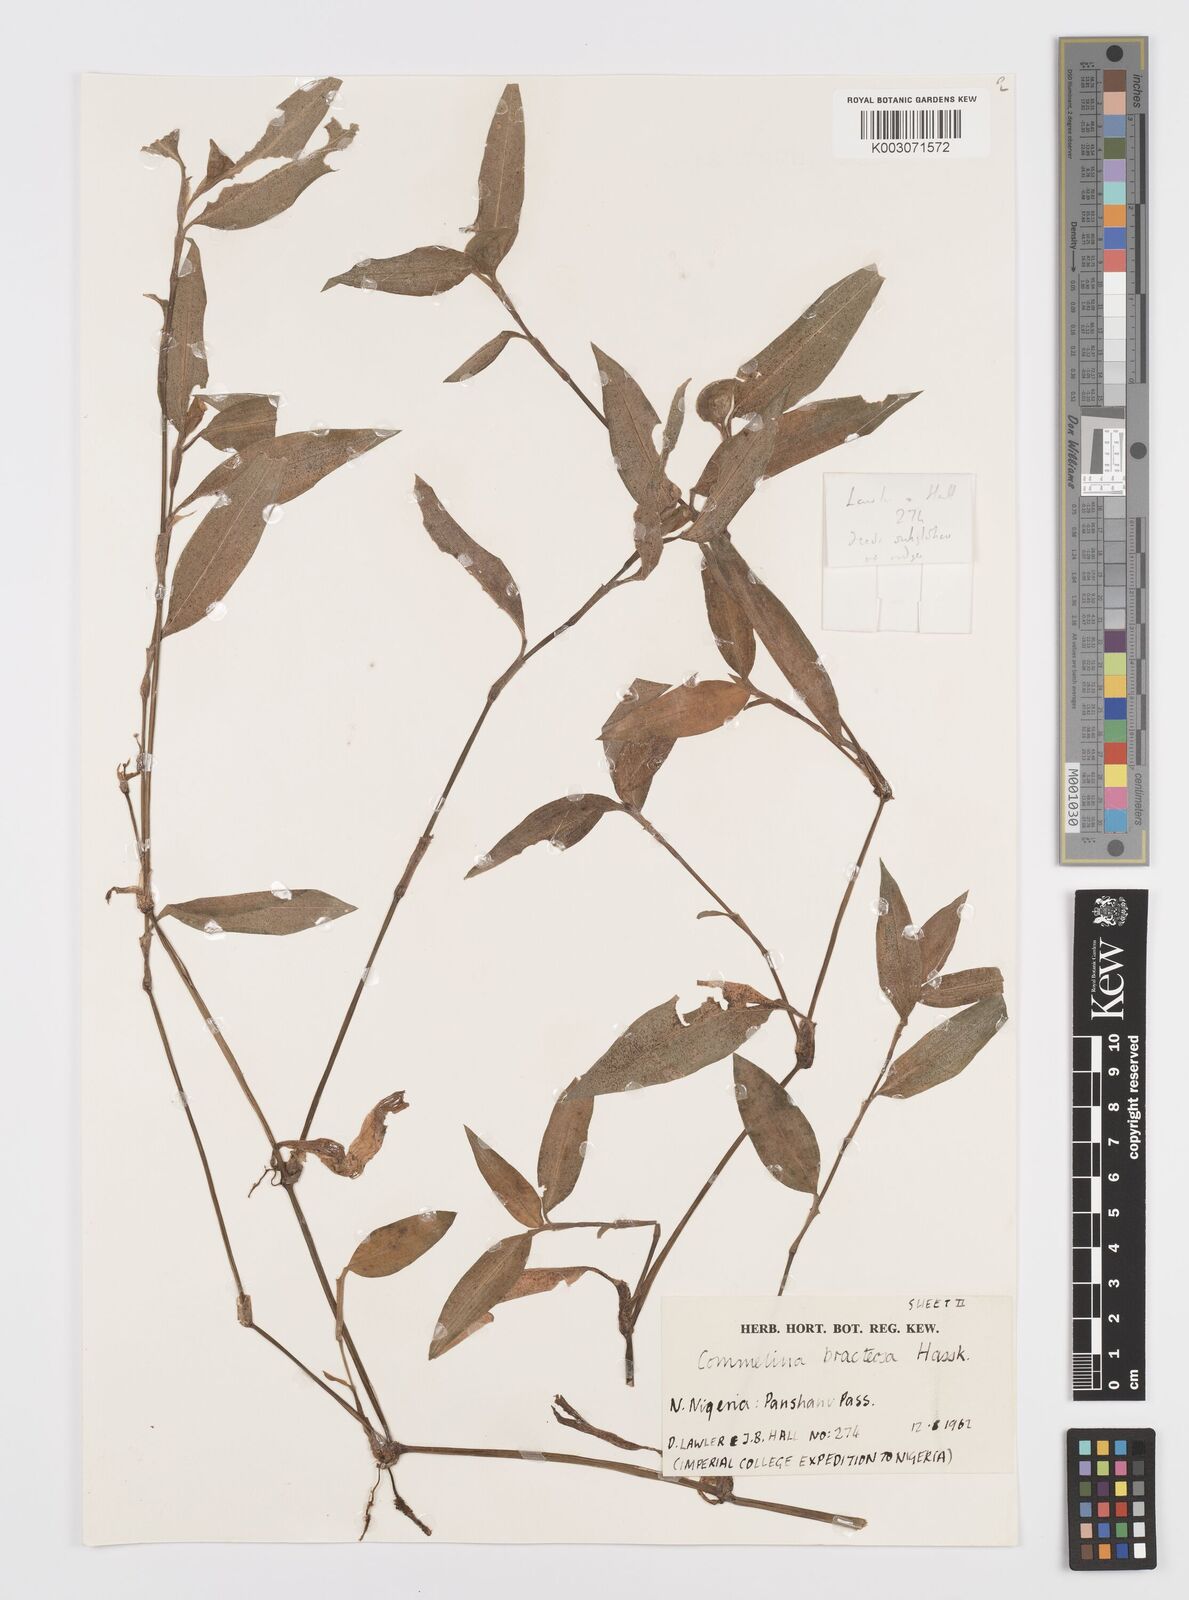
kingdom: Plantae
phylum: Tracheophyta
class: Liliopsida
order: Commelinales
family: Commelinaceae
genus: Commelina
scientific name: Commelina bracteosa
